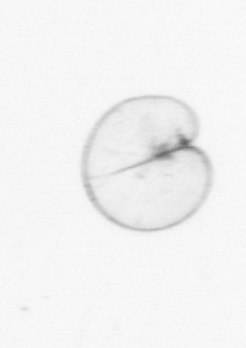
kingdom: Chromista
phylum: Myzozoa
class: Dinophyceae
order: Noctilucales
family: Noctilucaceae
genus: Noctiluca
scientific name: Noctiluca scintillans
